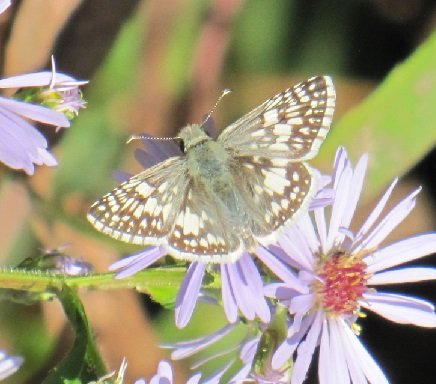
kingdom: Animalia
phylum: Arthropoda
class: Insecta
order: Lepidoptera
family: Hesperiidae
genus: Pyrgus
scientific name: Pyrgus communis
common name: Common Checkered-Skipper
